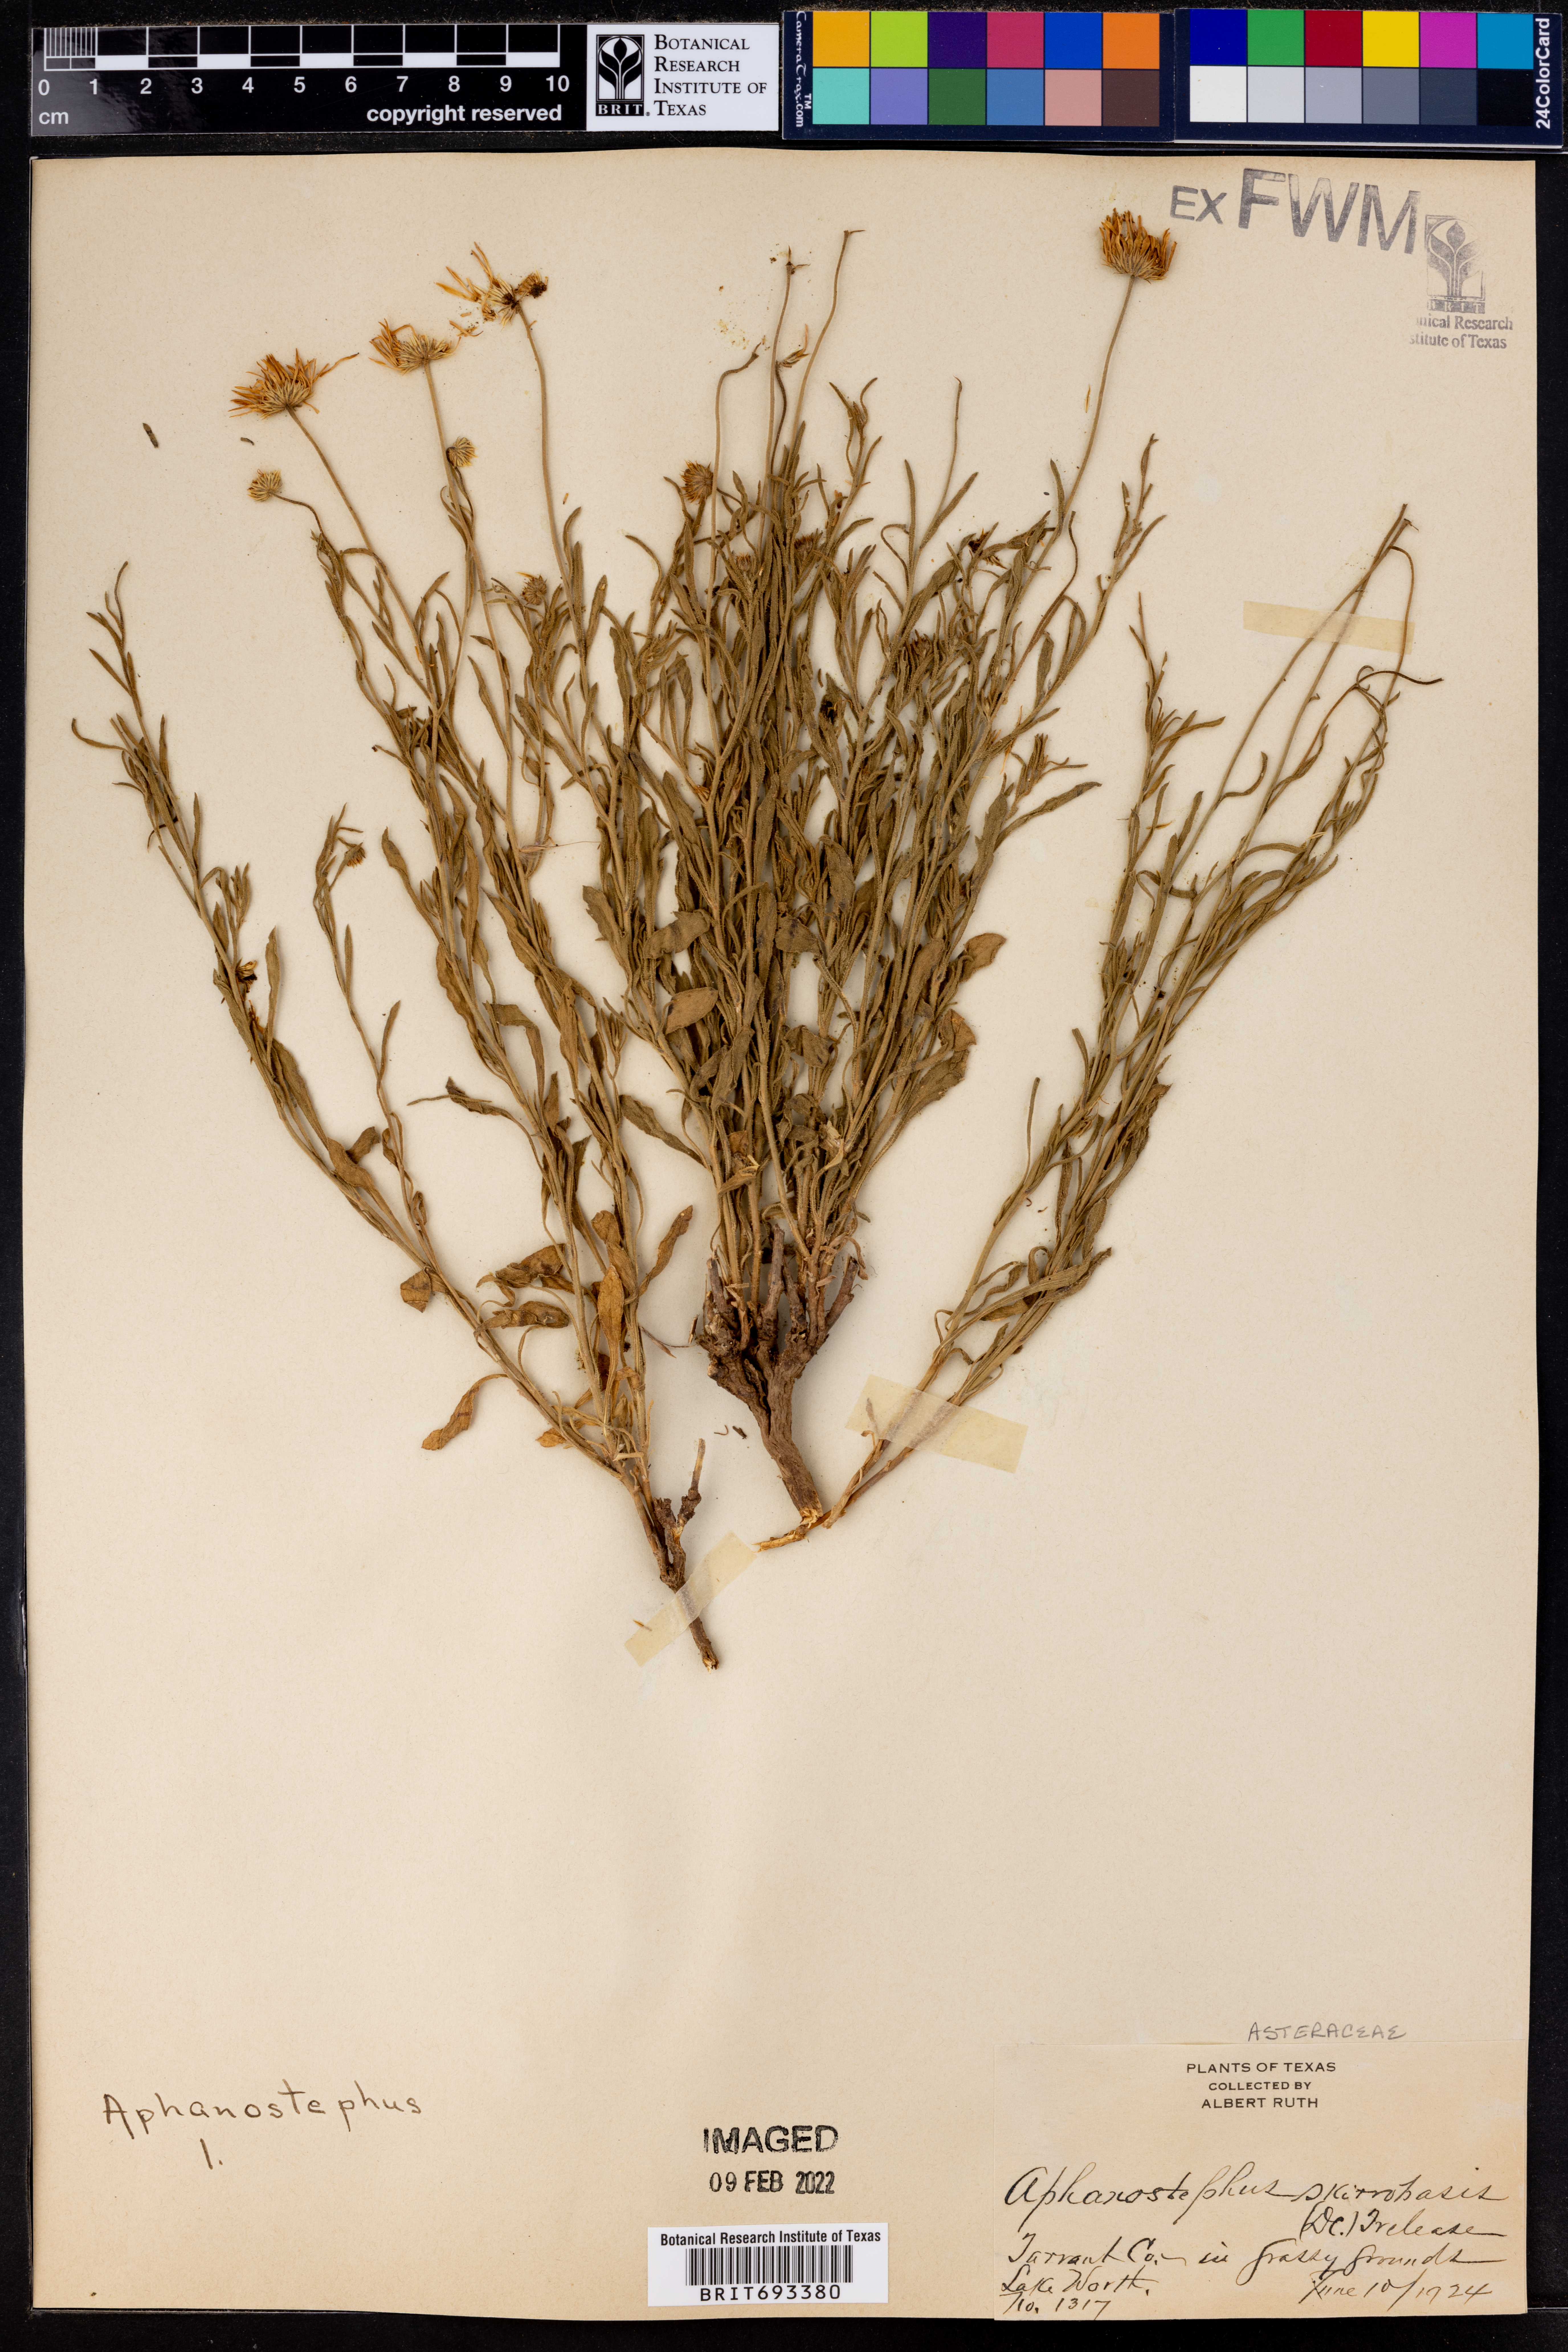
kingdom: Plantae
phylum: Tracheophyta
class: Magnoliopsida
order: Asterales
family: Asteraceae
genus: Aphanostephus
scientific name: Aphanostephus skirrhobasis
